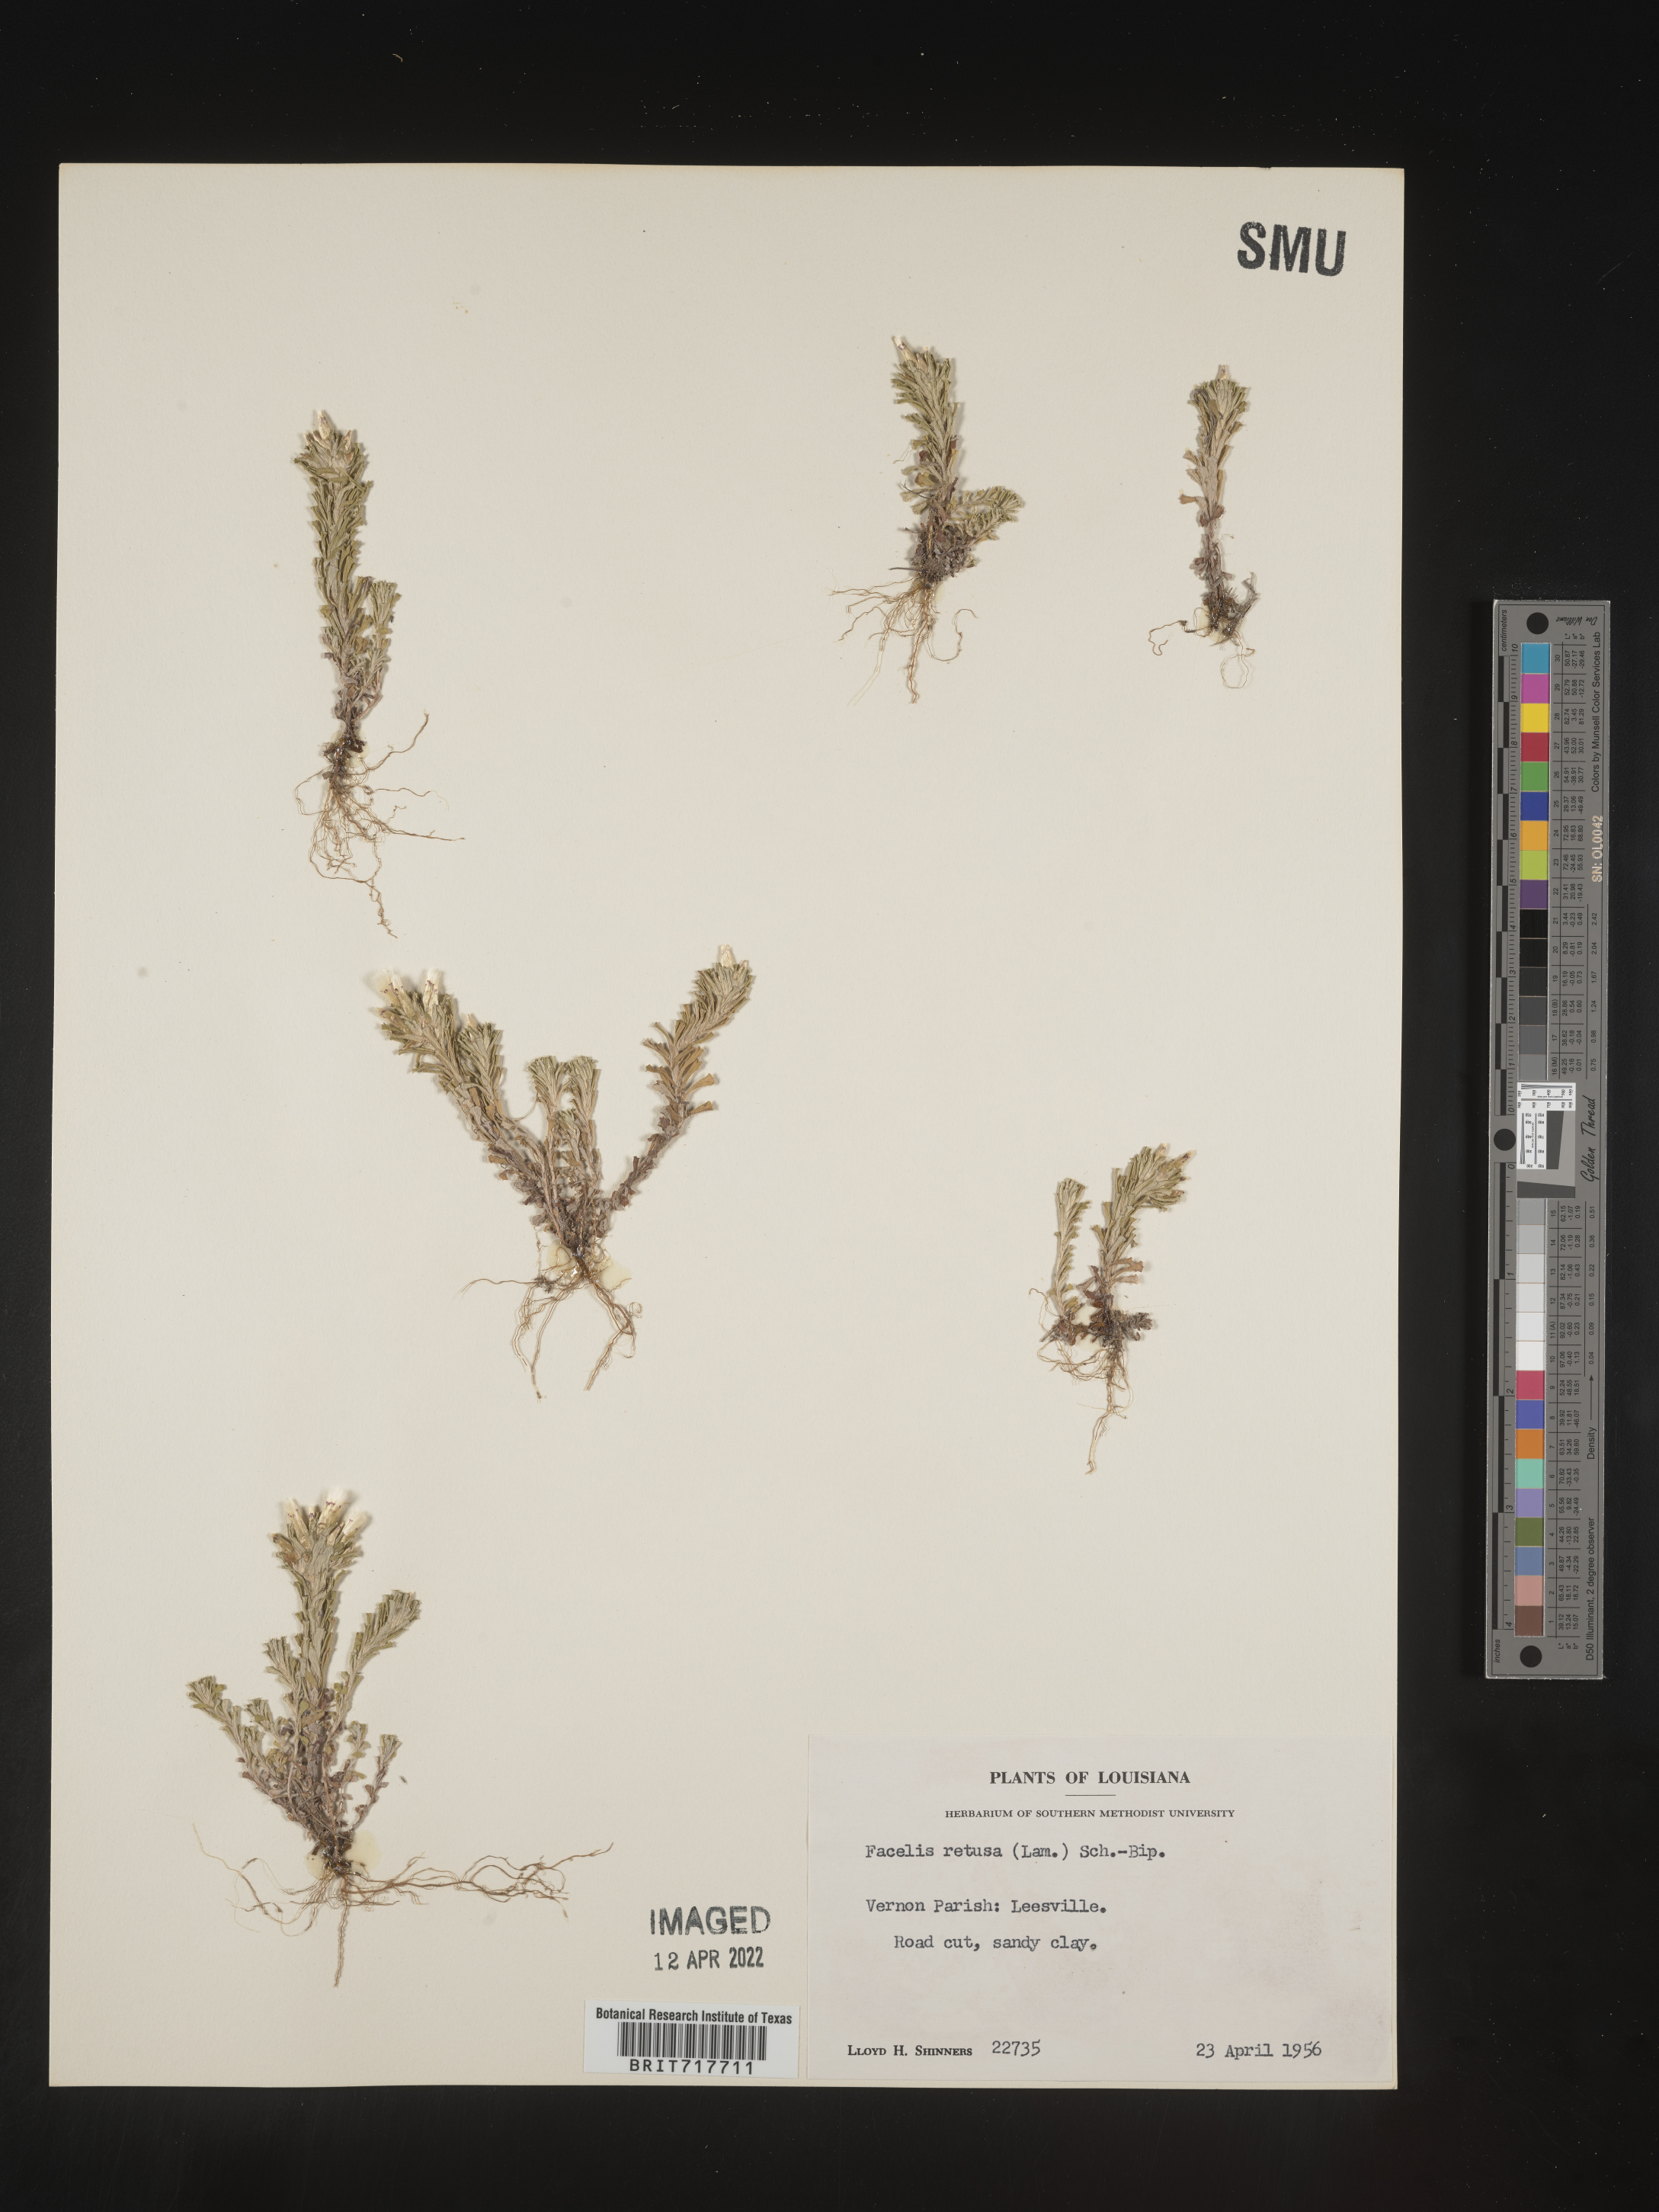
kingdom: Plantae
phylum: Tracheophyta
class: Magnoliopsida
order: Asterales
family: Asteraceae
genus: Facelis
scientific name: Facelis retusa
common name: Annual trampweed
